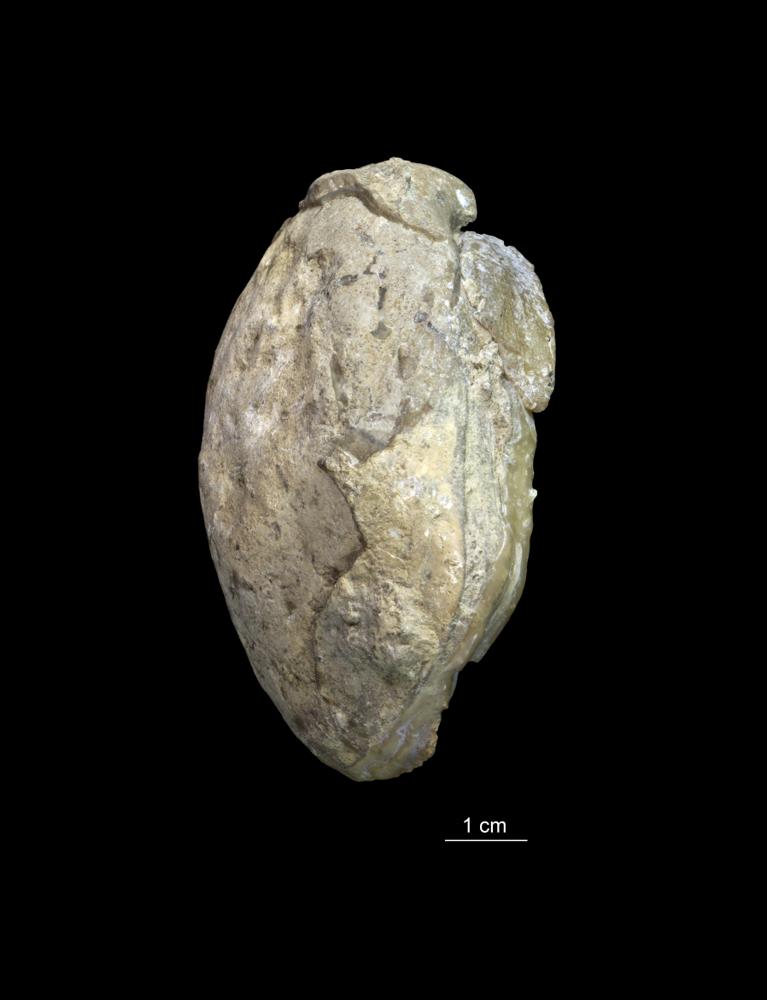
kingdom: Animalia
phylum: Brachiopoda
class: Rhynchonellata
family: Pentameridae
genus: Pentamerus
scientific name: Pentamerus
